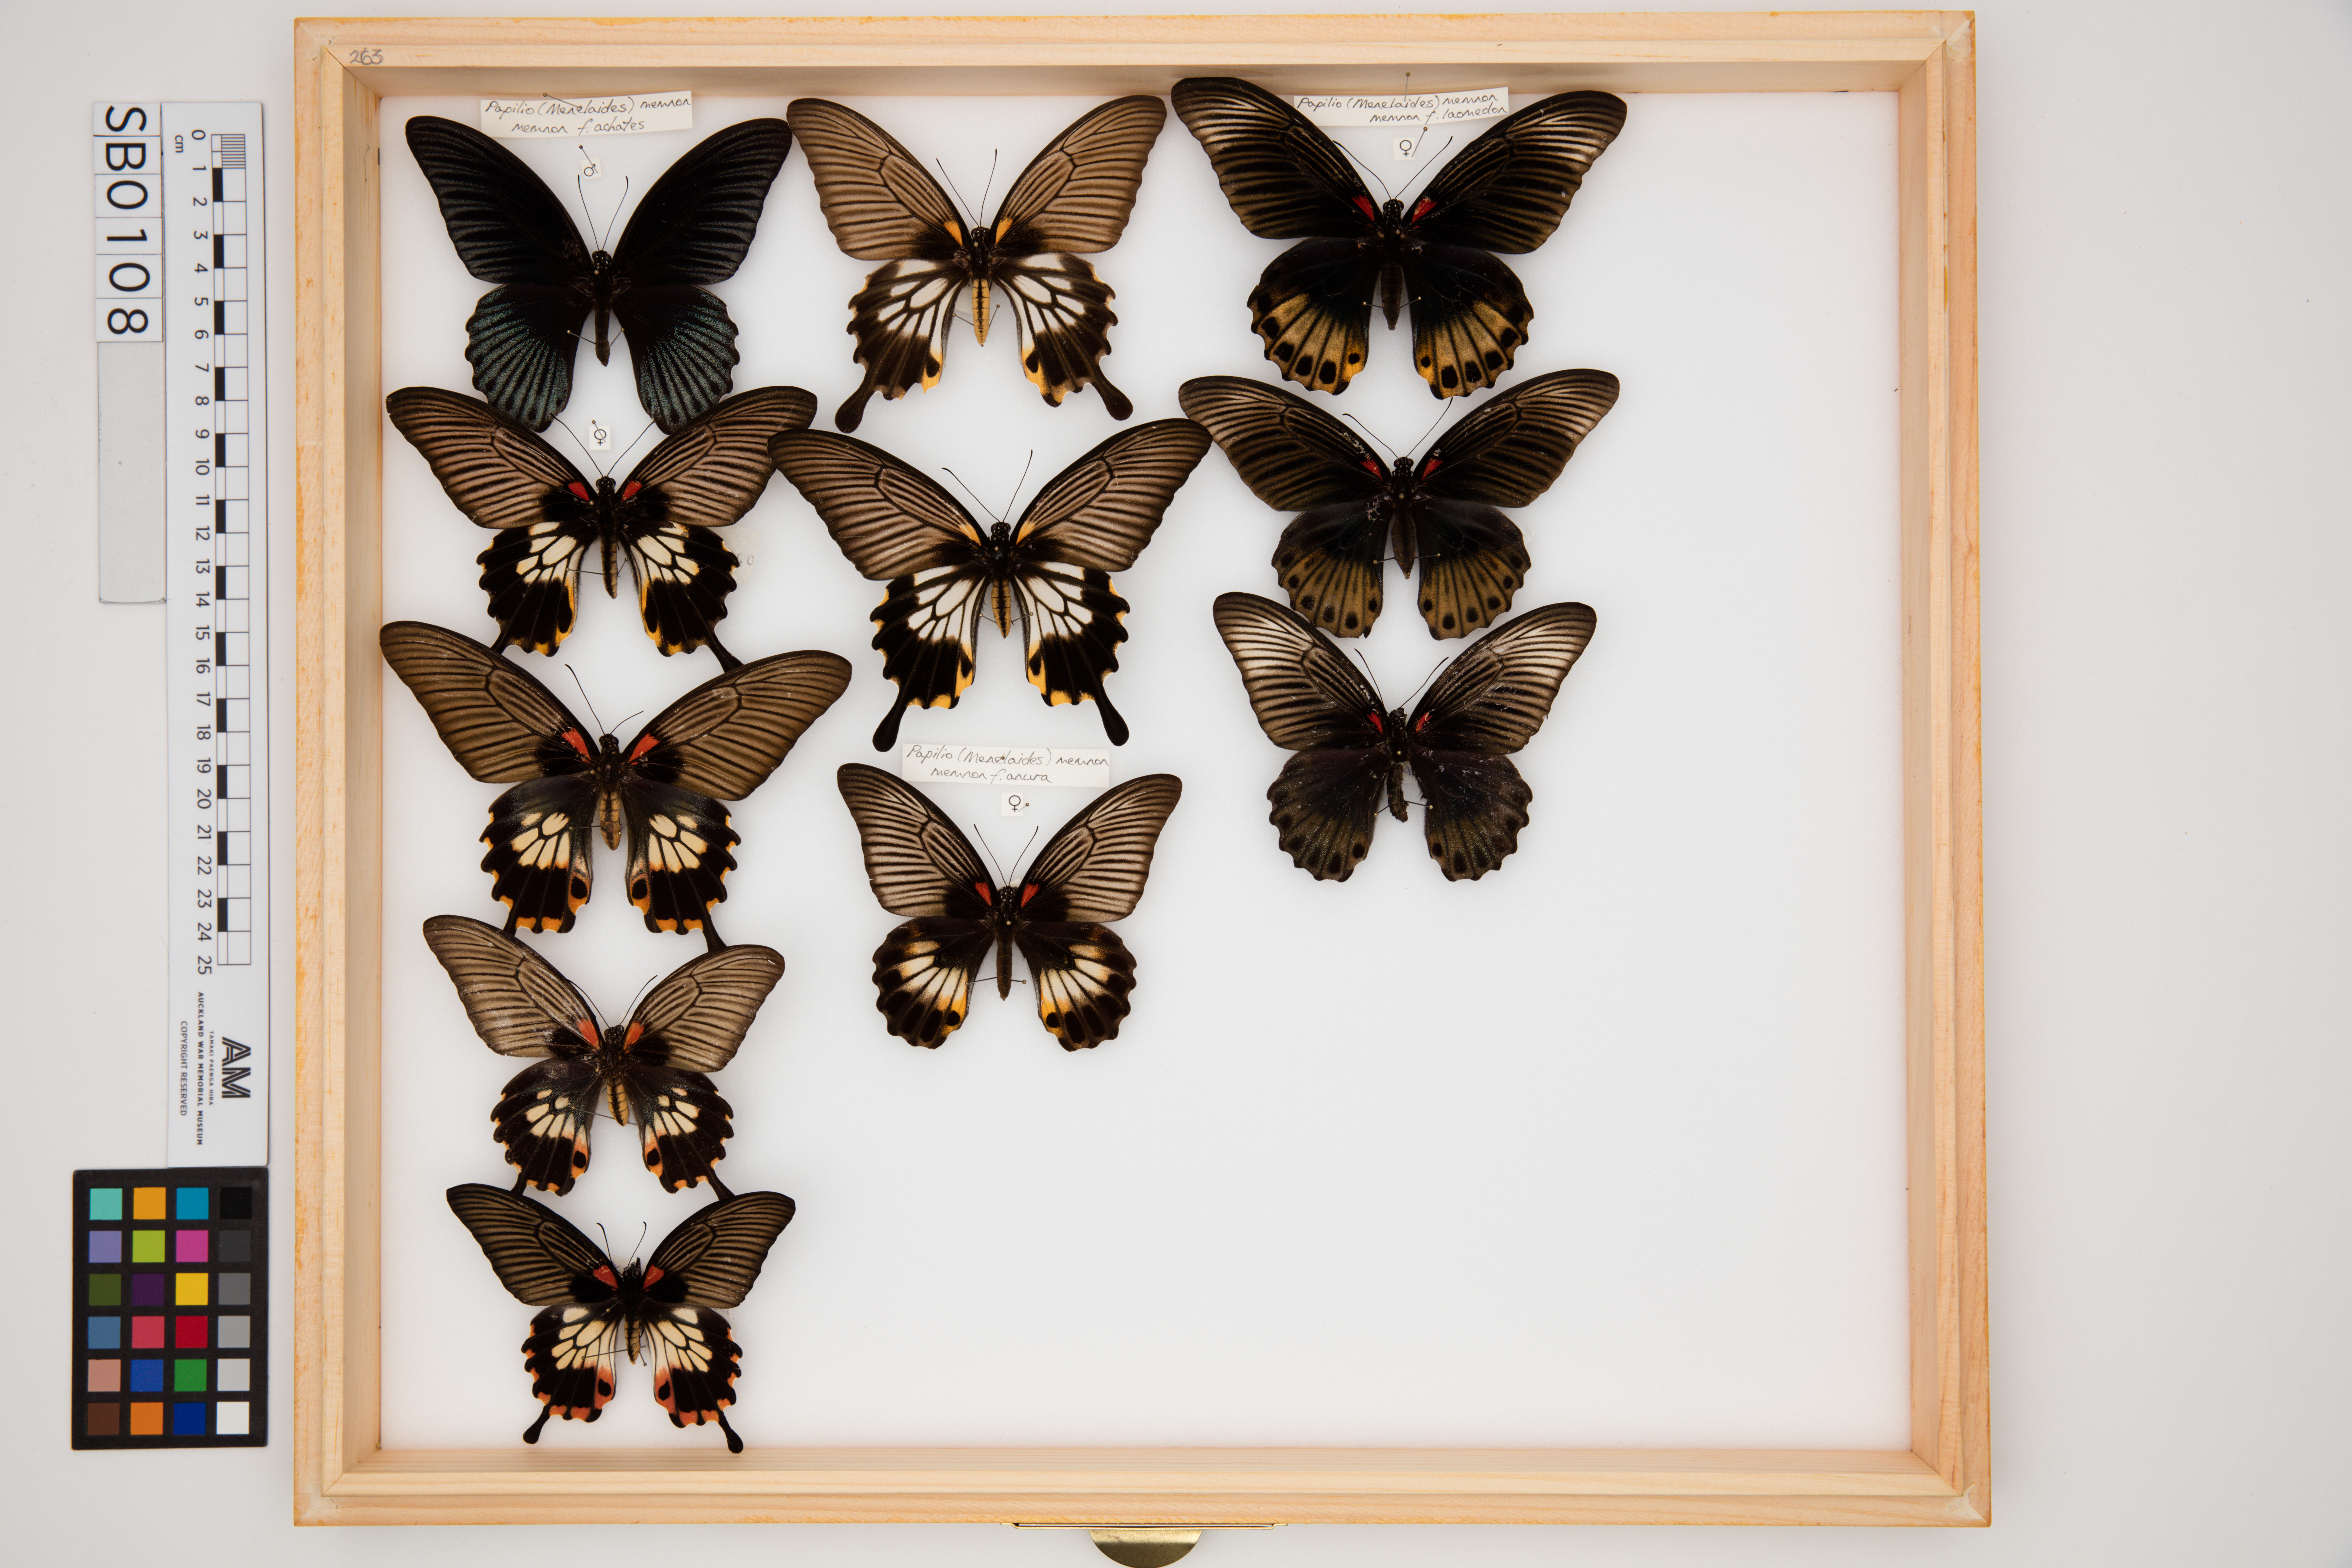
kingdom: Animalia
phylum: Arthropoda
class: Insecta
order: Lepidoptera
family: Papilionidae
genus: Papilio
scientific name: Papilio memnon
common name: Great mormon
